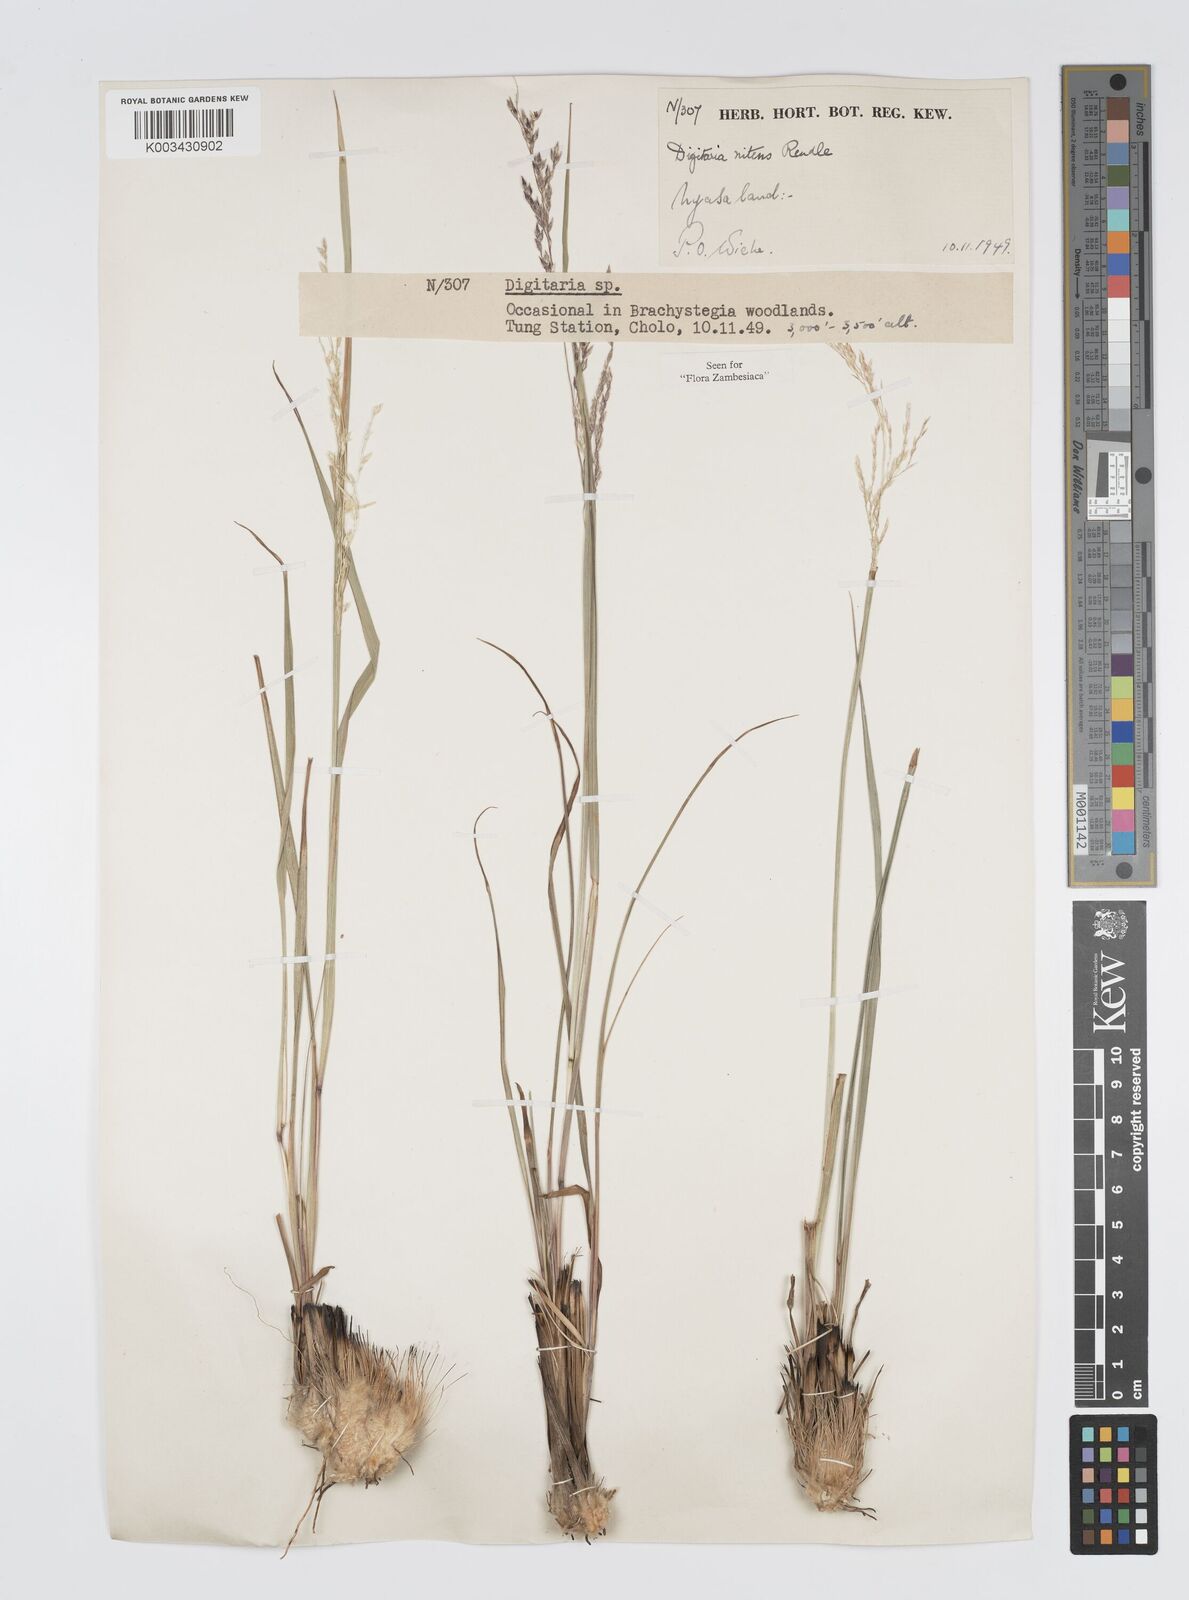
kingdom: Plantae
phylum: Tracheophyta
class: Liliopsida
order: Poales
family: Poaceae
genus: Digitaria
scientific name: Digitaria flaccida
